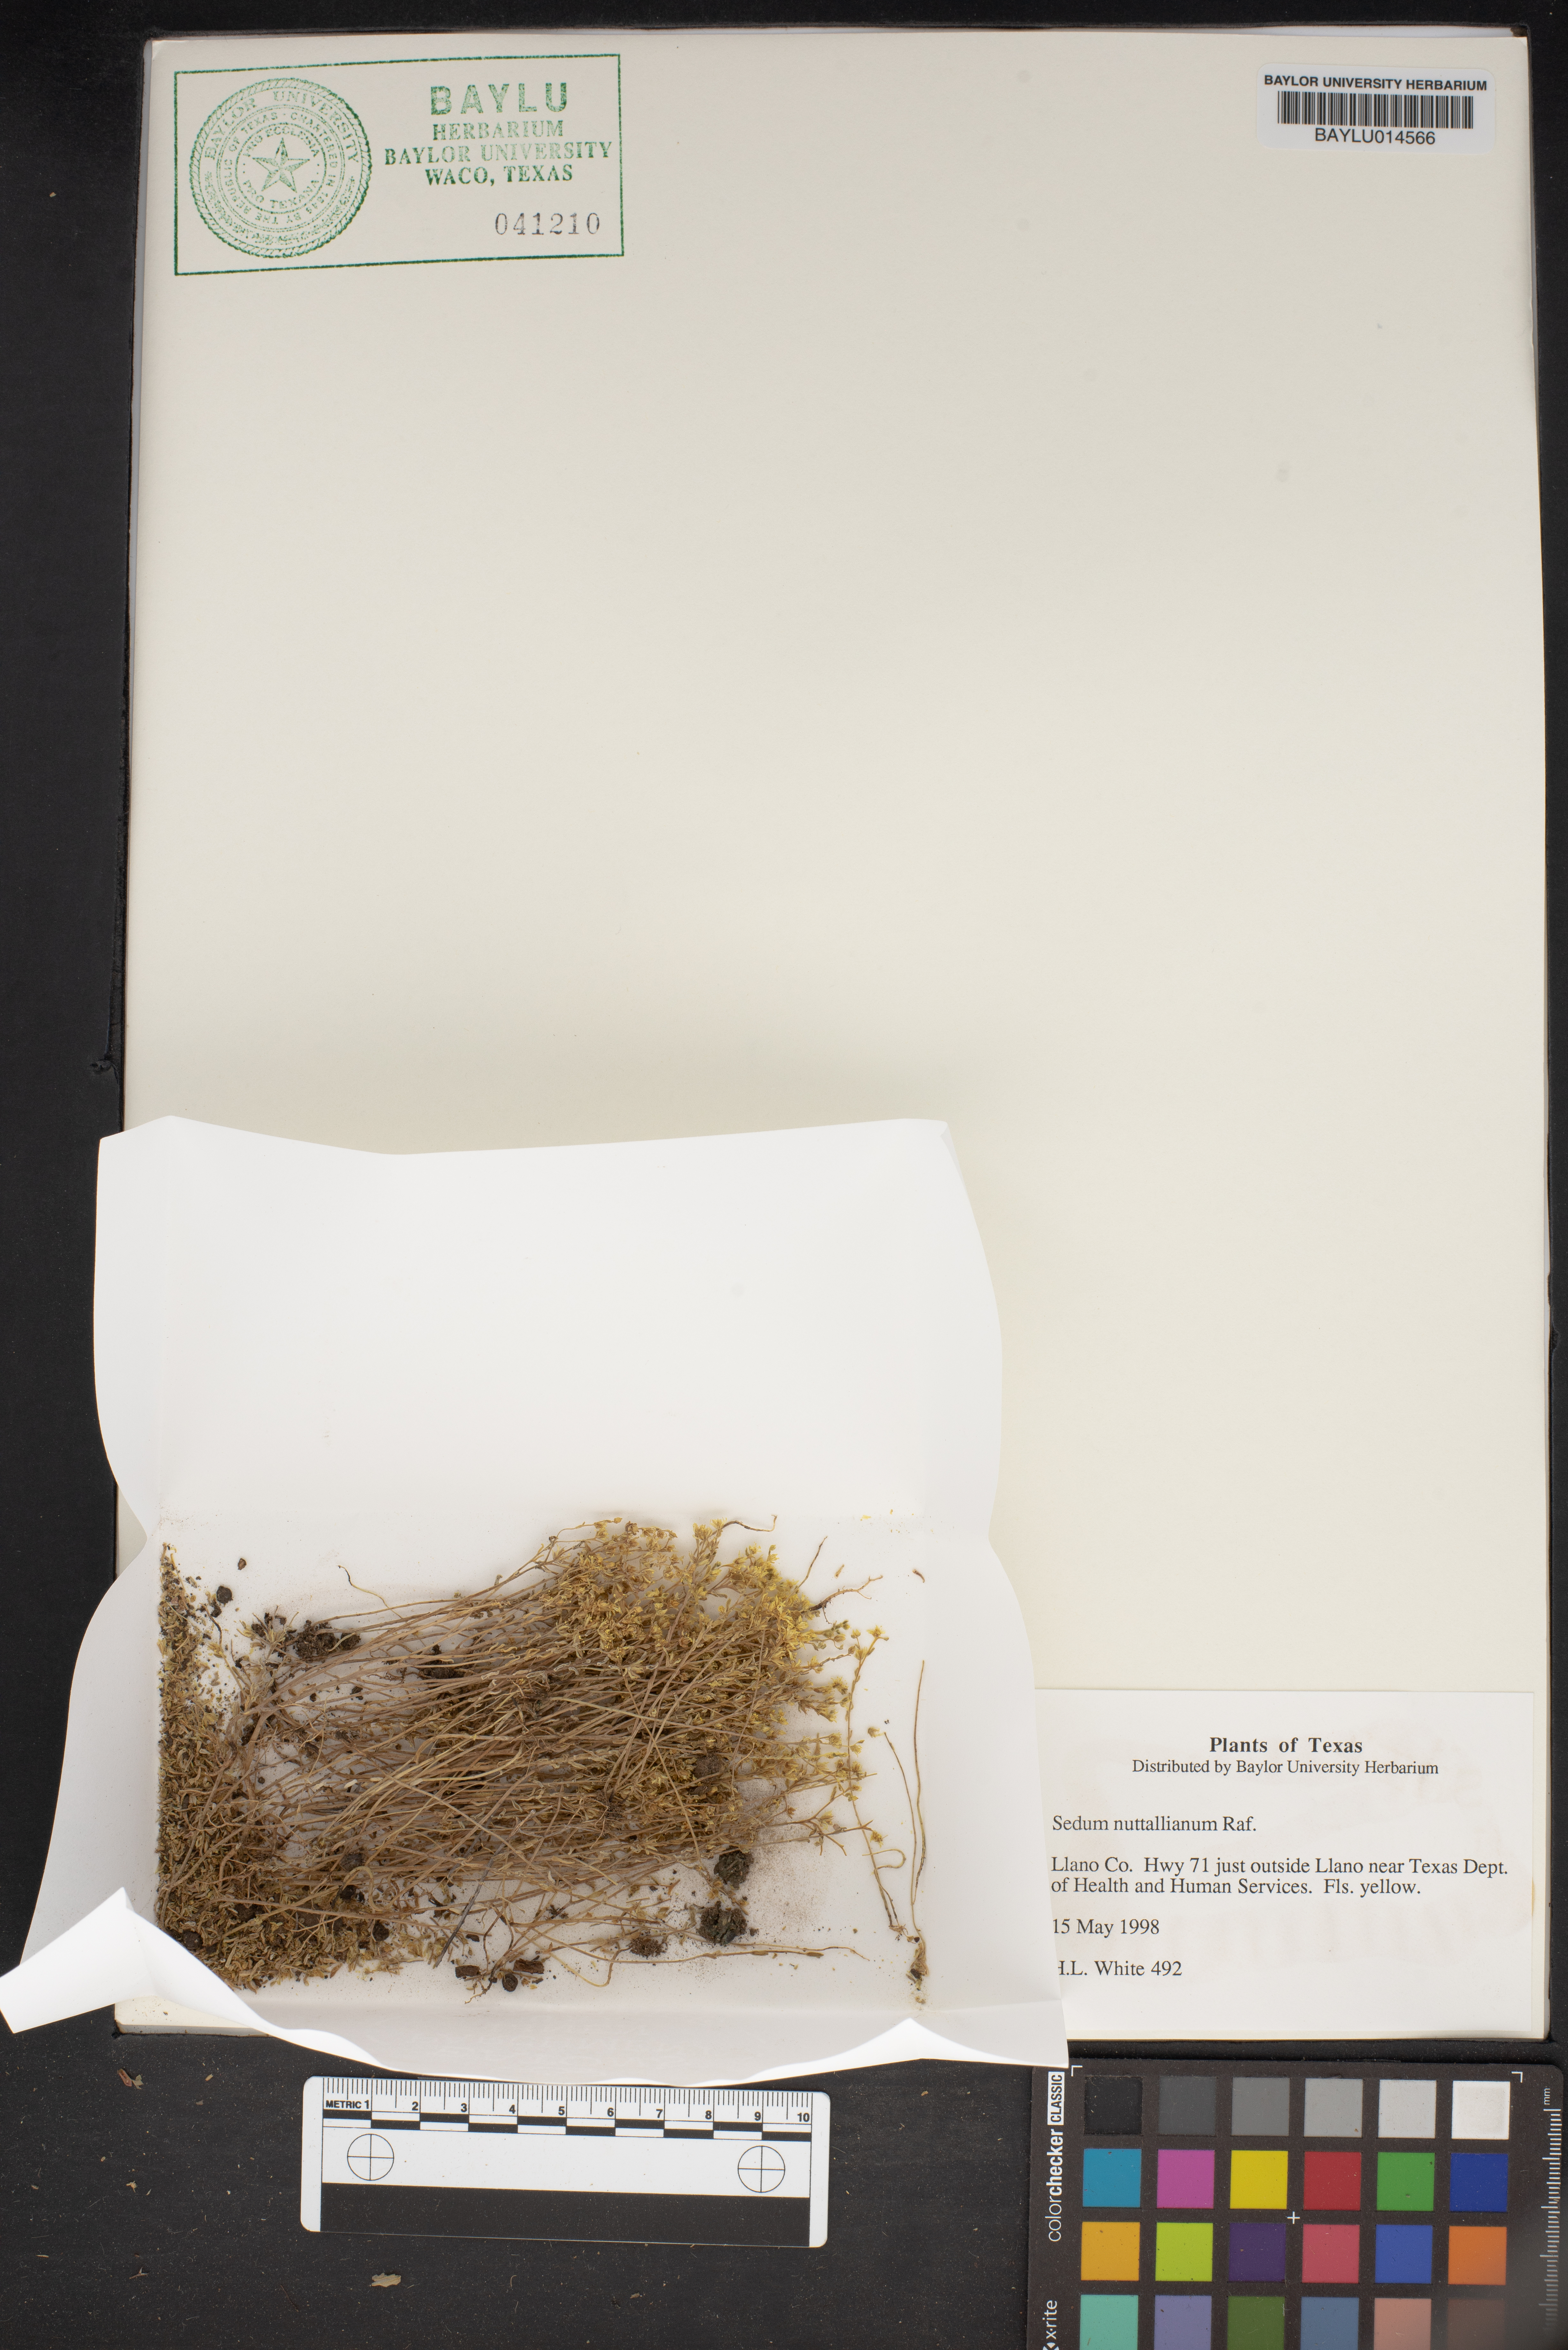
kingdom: Plantae
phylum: Tracheophyta
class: Magnoliopsida
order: Saxifragales
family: Crassulaceae
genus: Sedum
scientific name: Sedum nuttallii
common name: Yellow stonecrop
